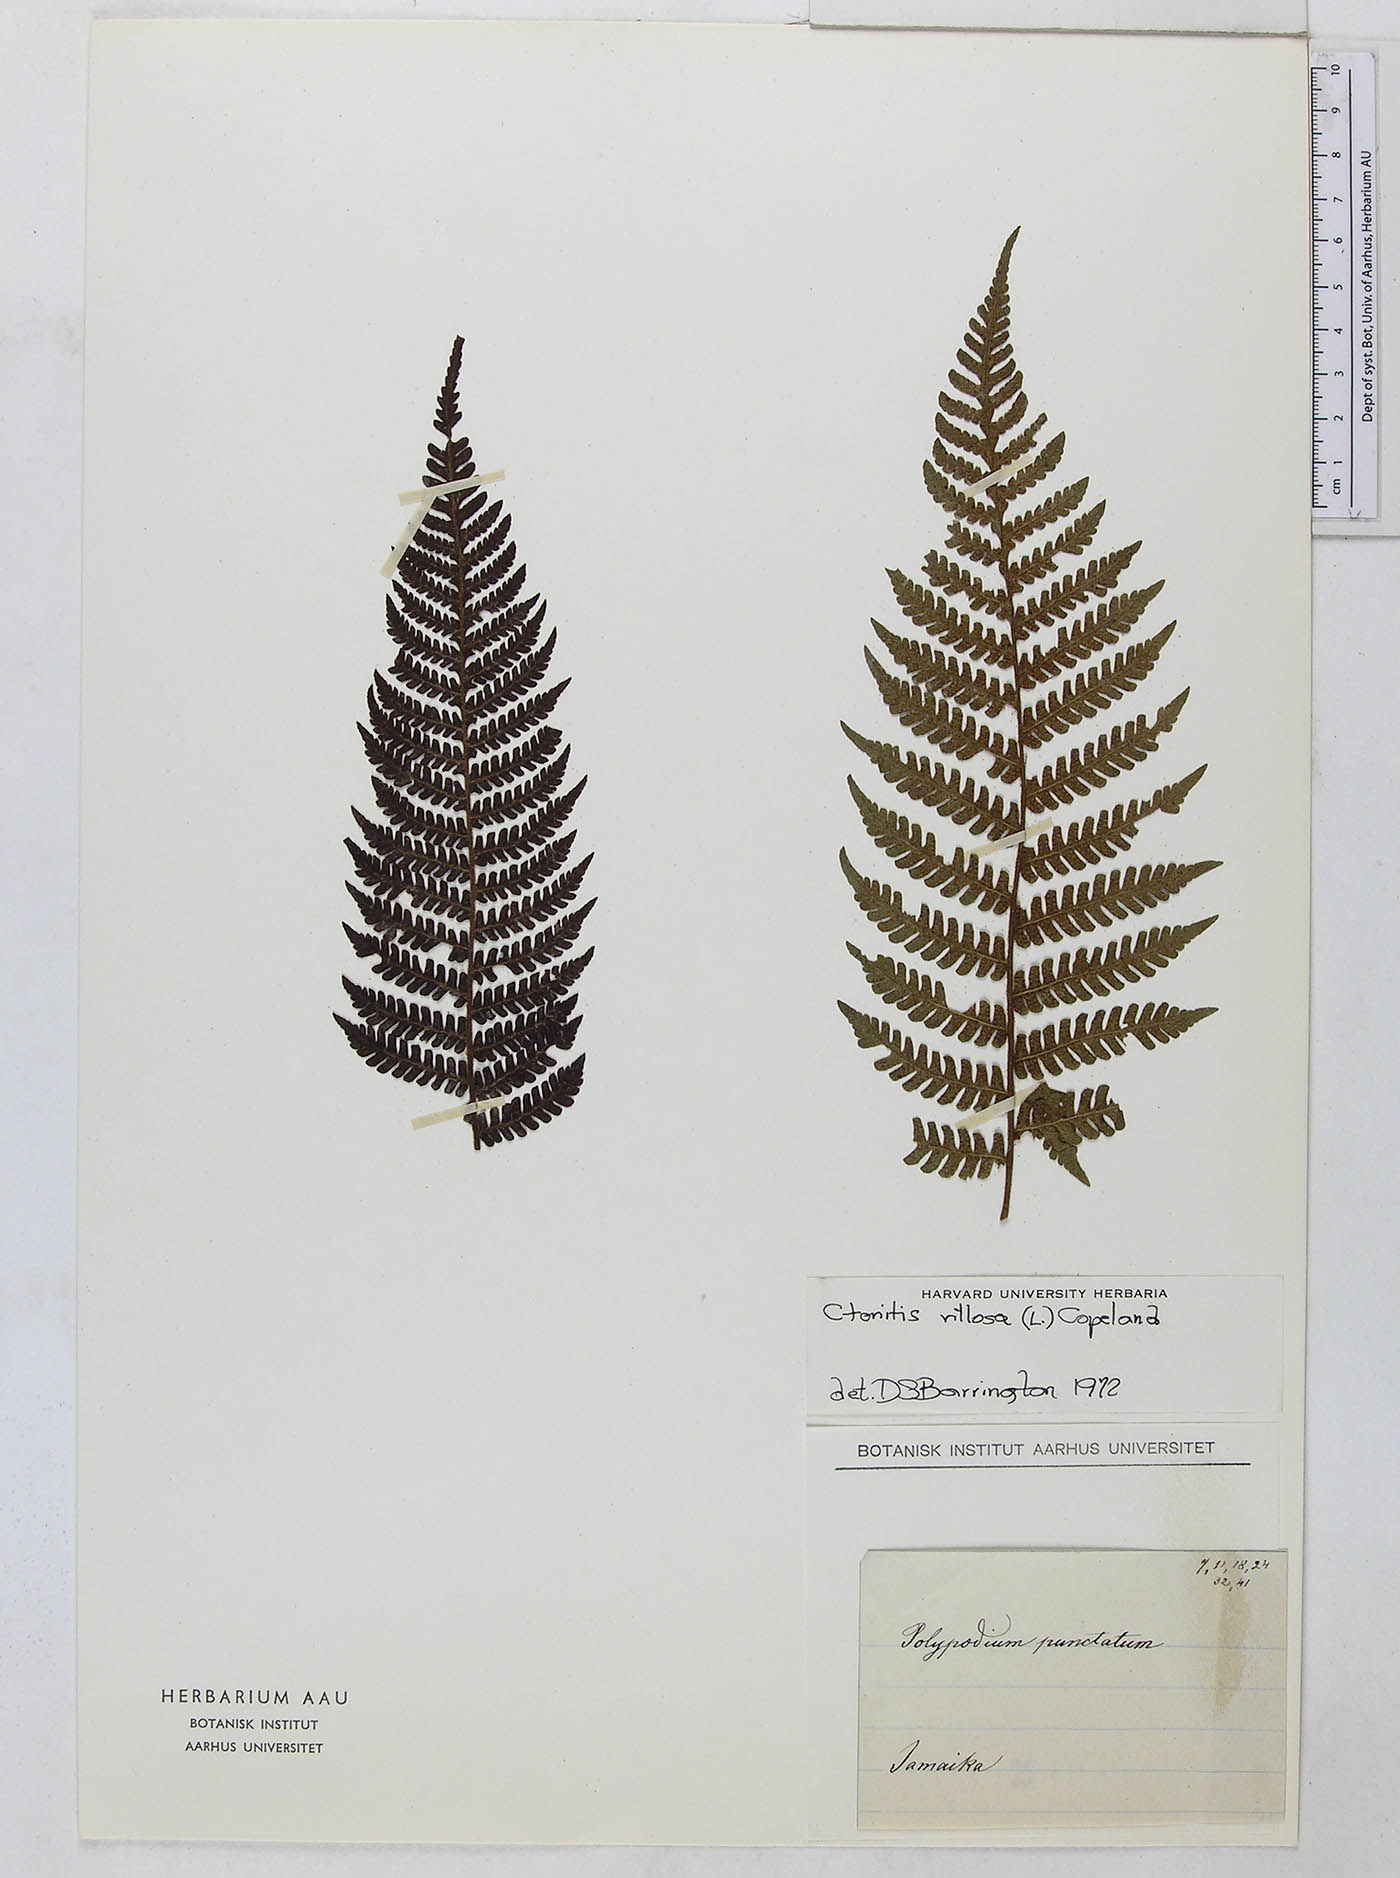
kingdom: Plantae
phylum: Tracheophyta
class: Polypodiopsida
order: Polypodiales
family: Dryopteridaceae
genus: Megalastrum
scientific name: Megalastrum villosum
